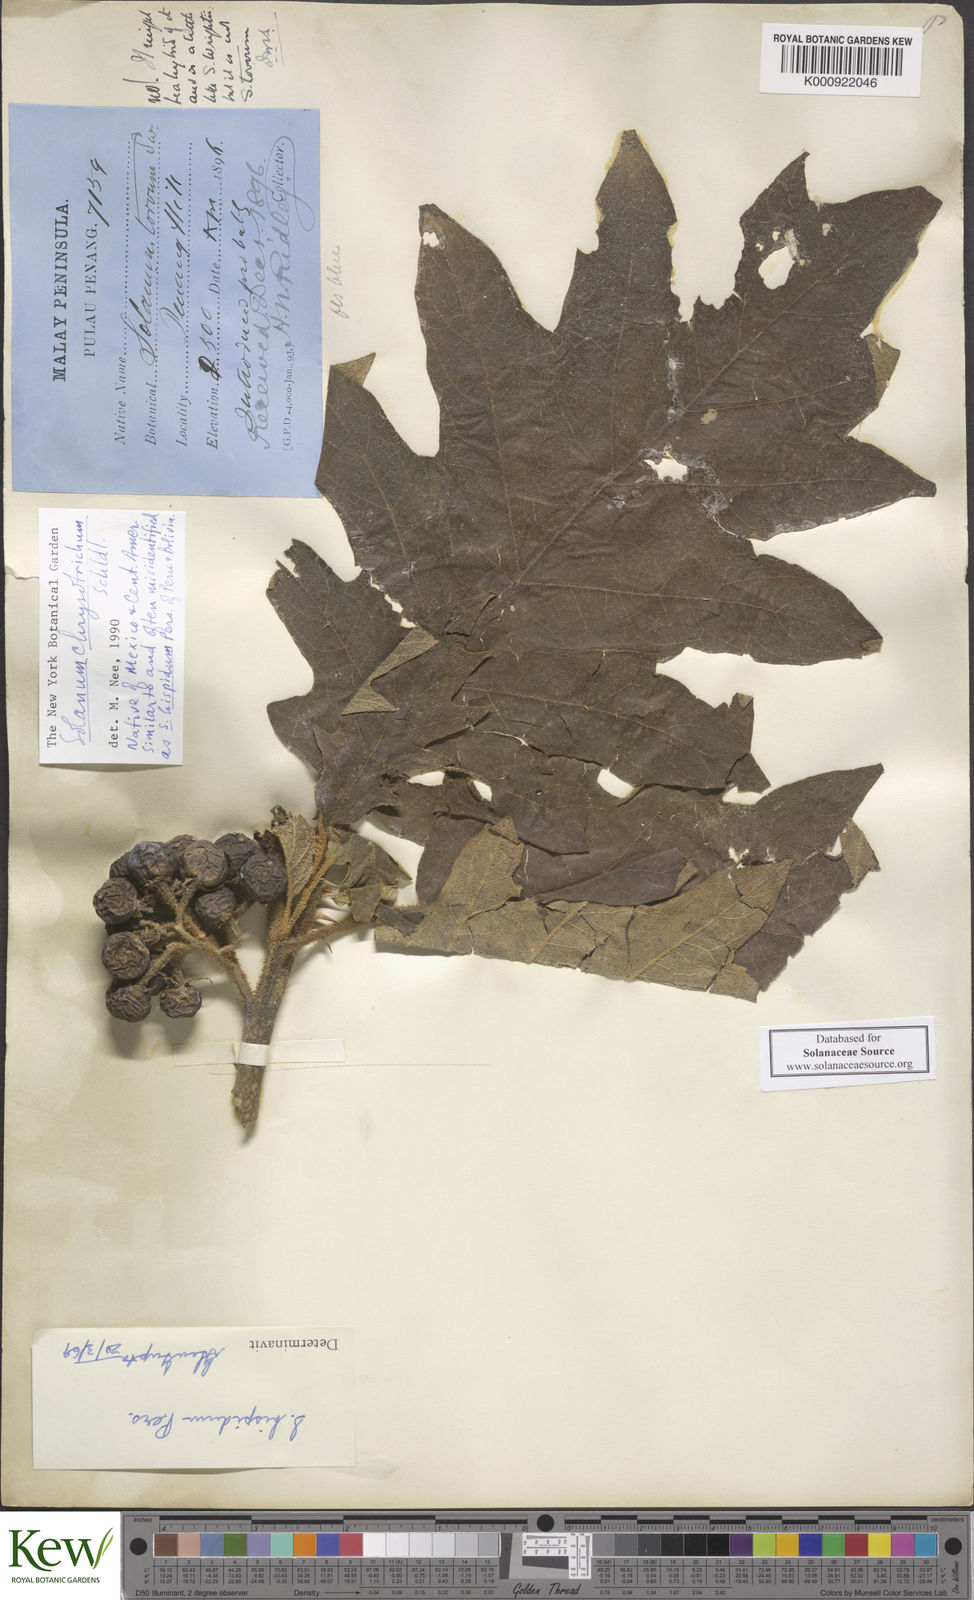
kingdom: Plantae
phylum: Tracheophyta
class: Magnoliopsida
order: Solanales
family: Solanaceae
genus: Solanum
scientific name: Solanum chrysotrichum
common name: Nightshade
